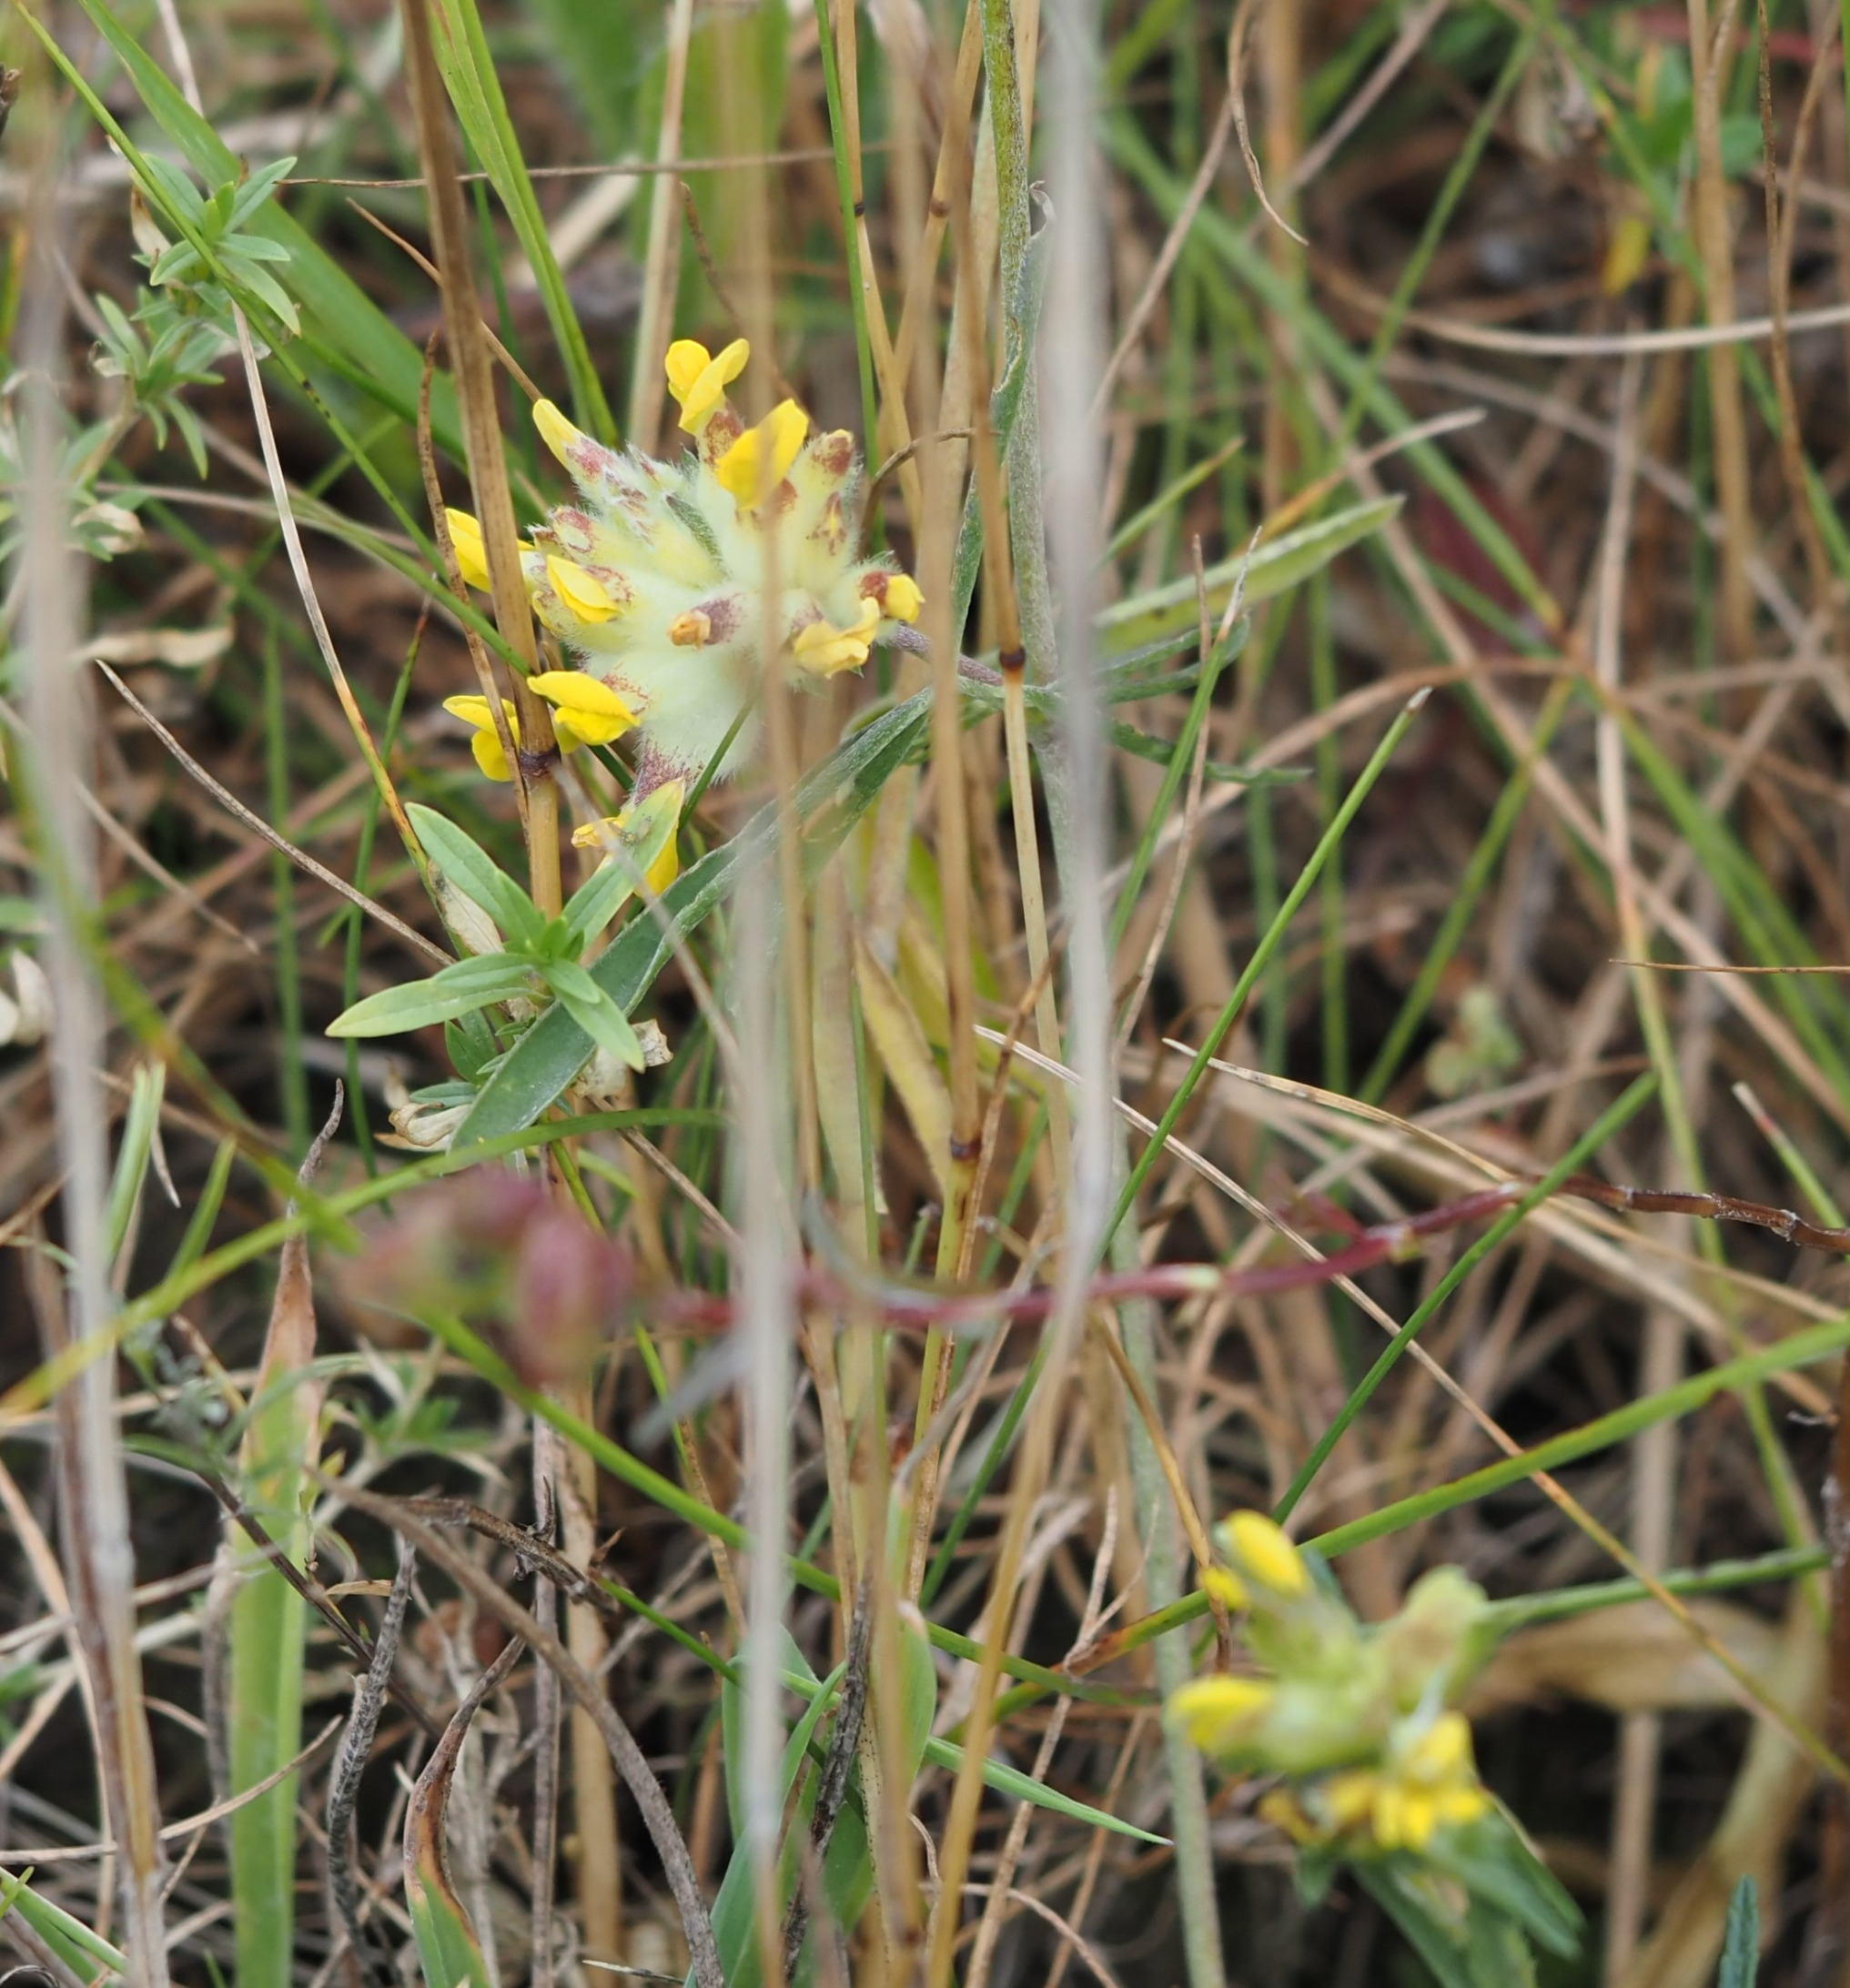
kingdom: Plantae
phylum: Tracheophyta
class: Magnoliopsida
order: Fabales
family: Fabaceae
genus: Anthyllis
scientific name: Anthyllis vulneraria
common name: Rundbælg
